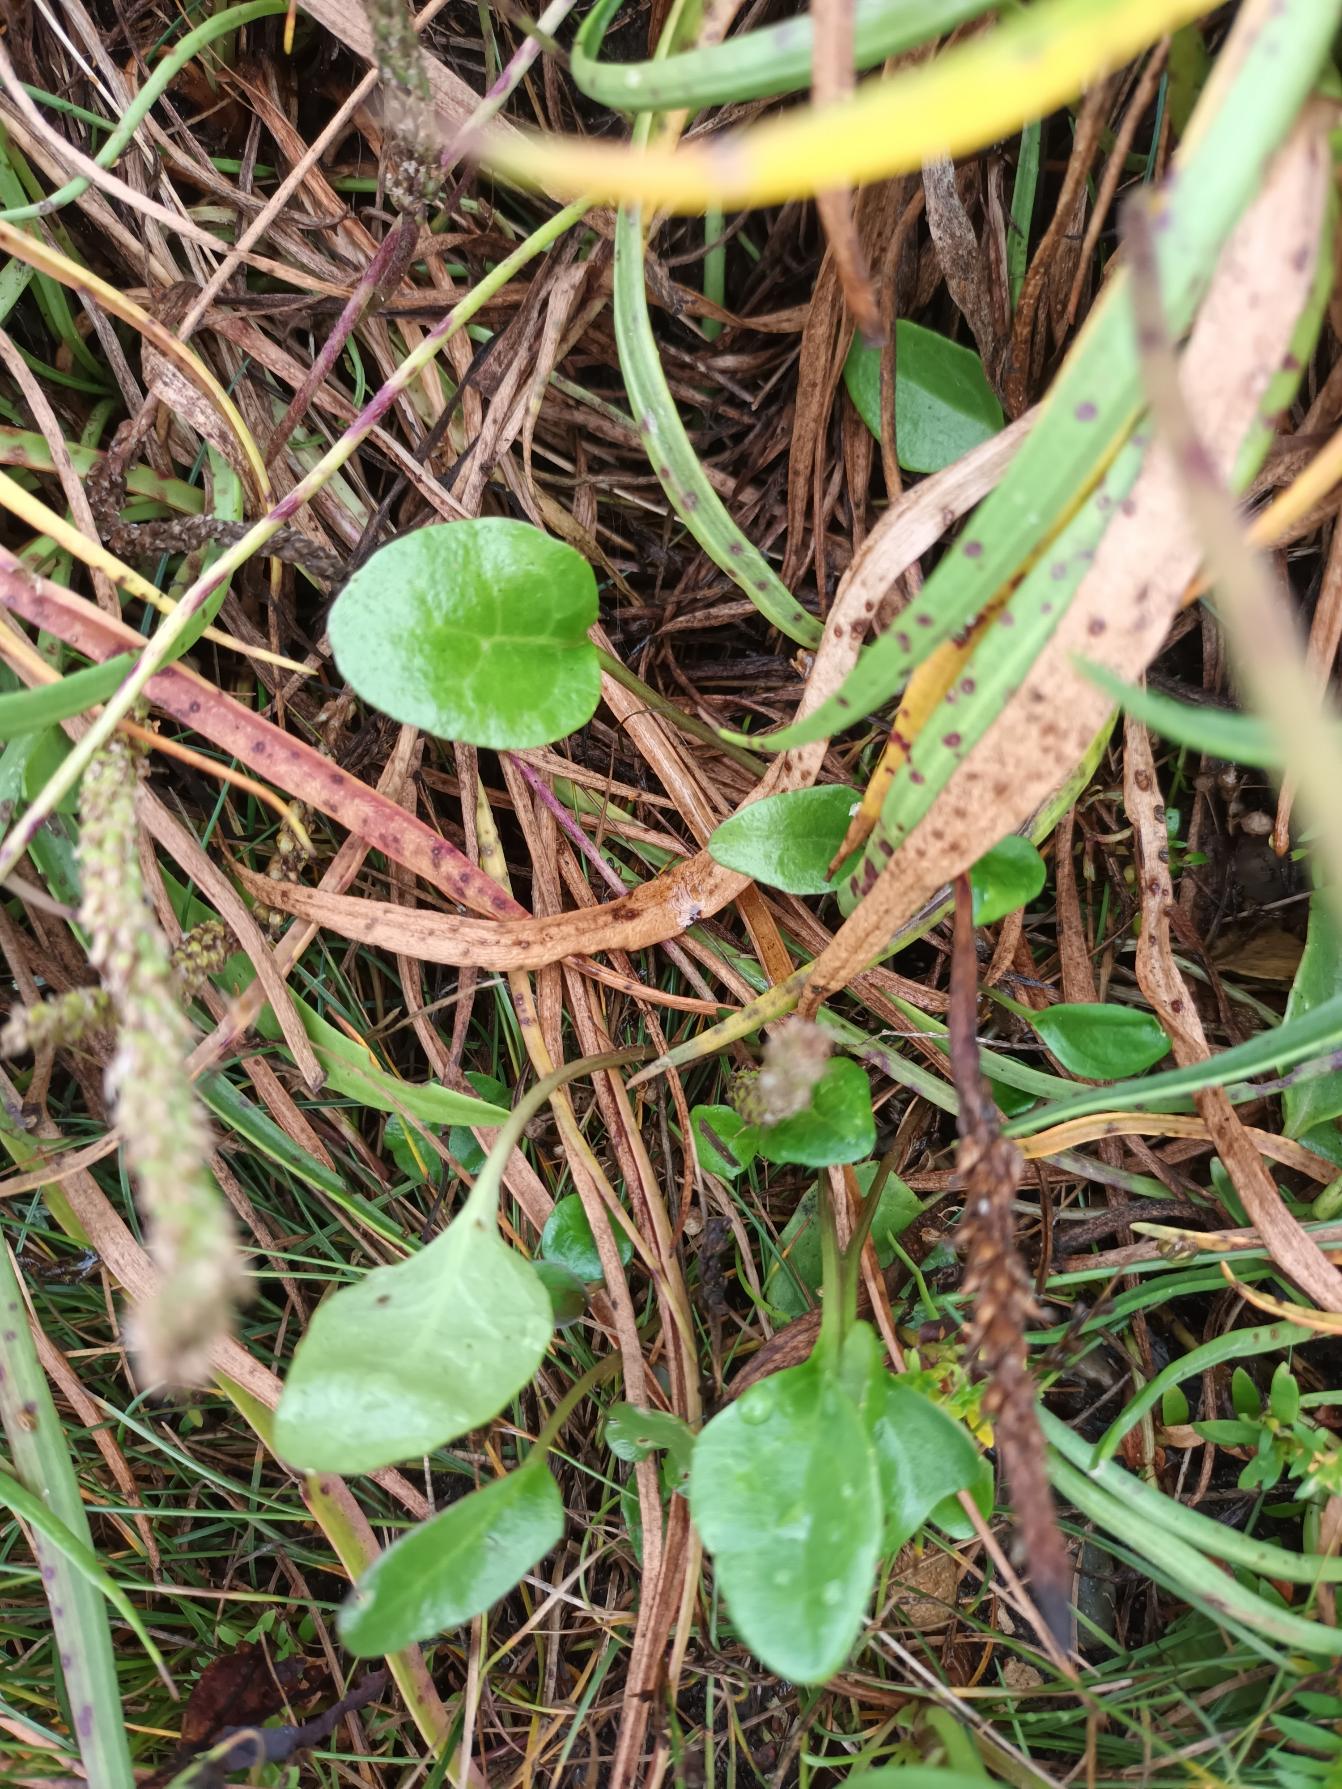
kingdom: Plantae
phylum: Tracheophyta
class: Magnoliopsida
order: Brassicales
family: Brassicaceae
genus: Cochlearia
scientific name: Cochlearia anglica
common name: Engelsk kokleare
